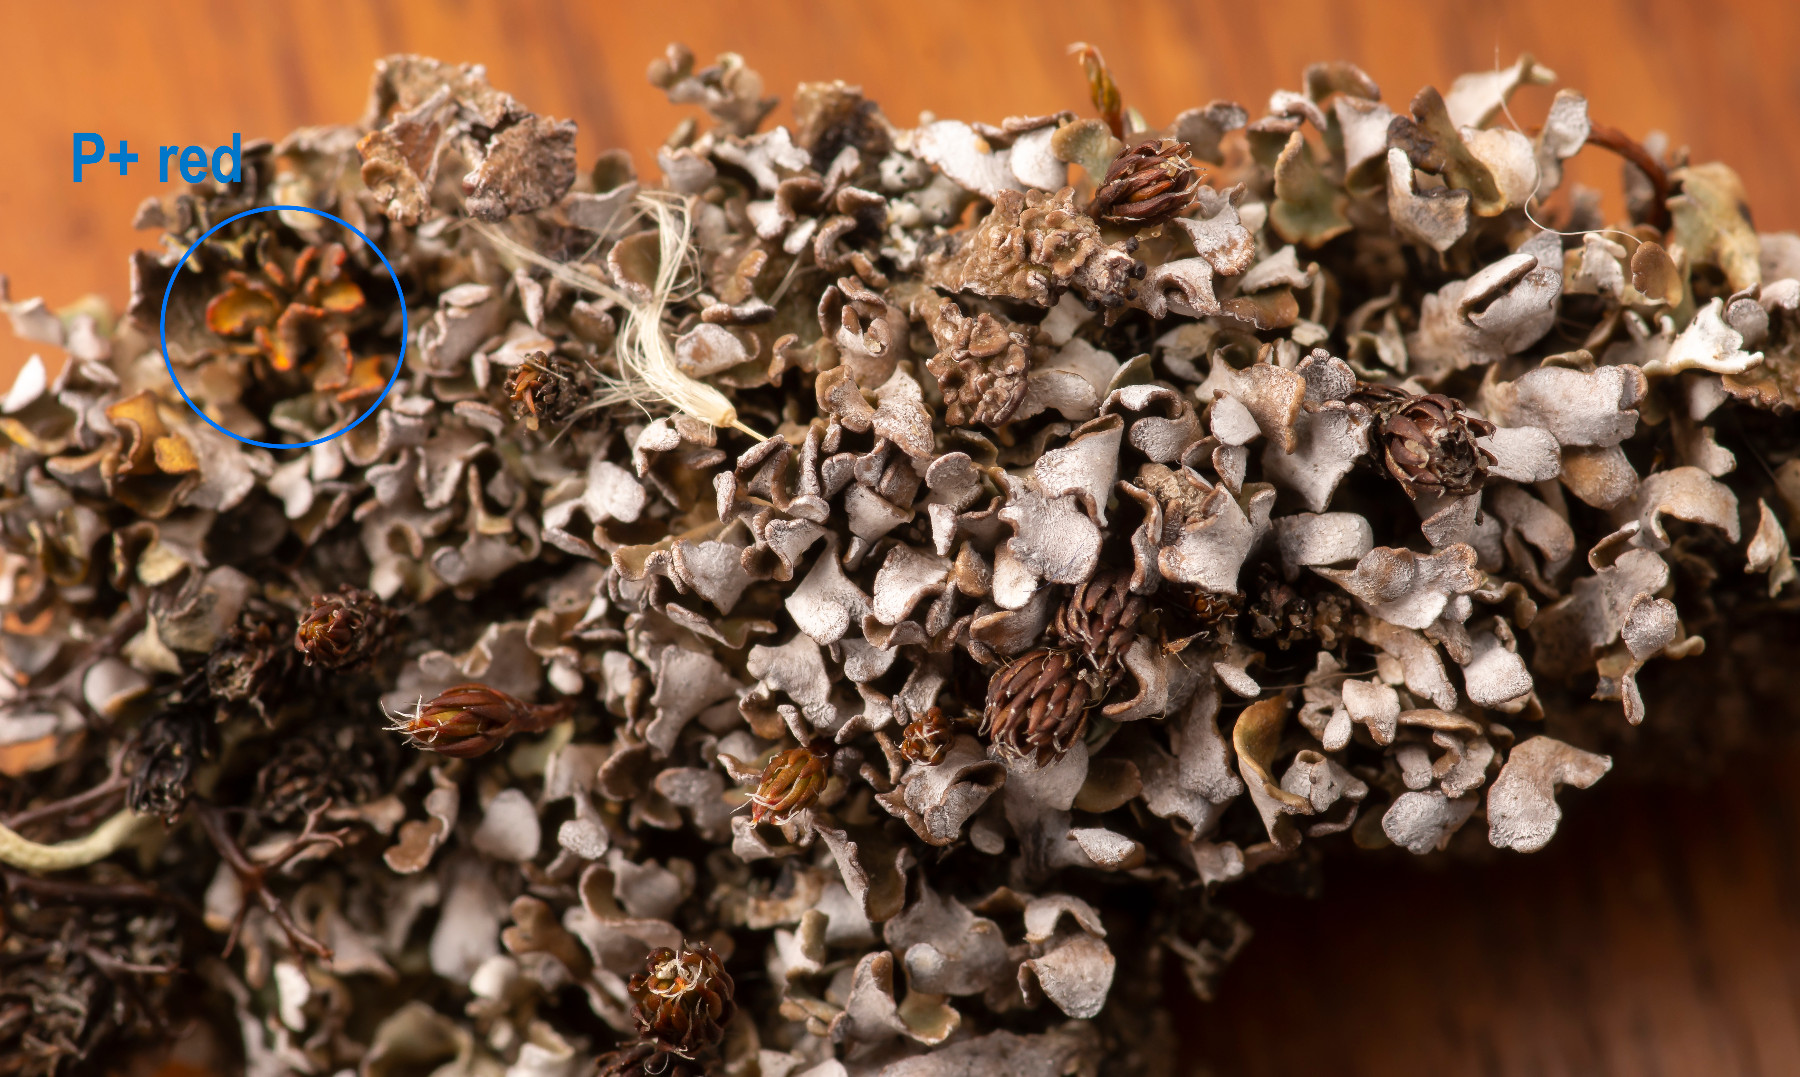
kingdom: Fungi
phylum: Ascomycota
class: Lecanoromycetes
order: Lecanorales
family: Cladoniaceae
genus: Cladonia
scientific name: Cladonia subcervicornis
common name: kyst-bægerlav
